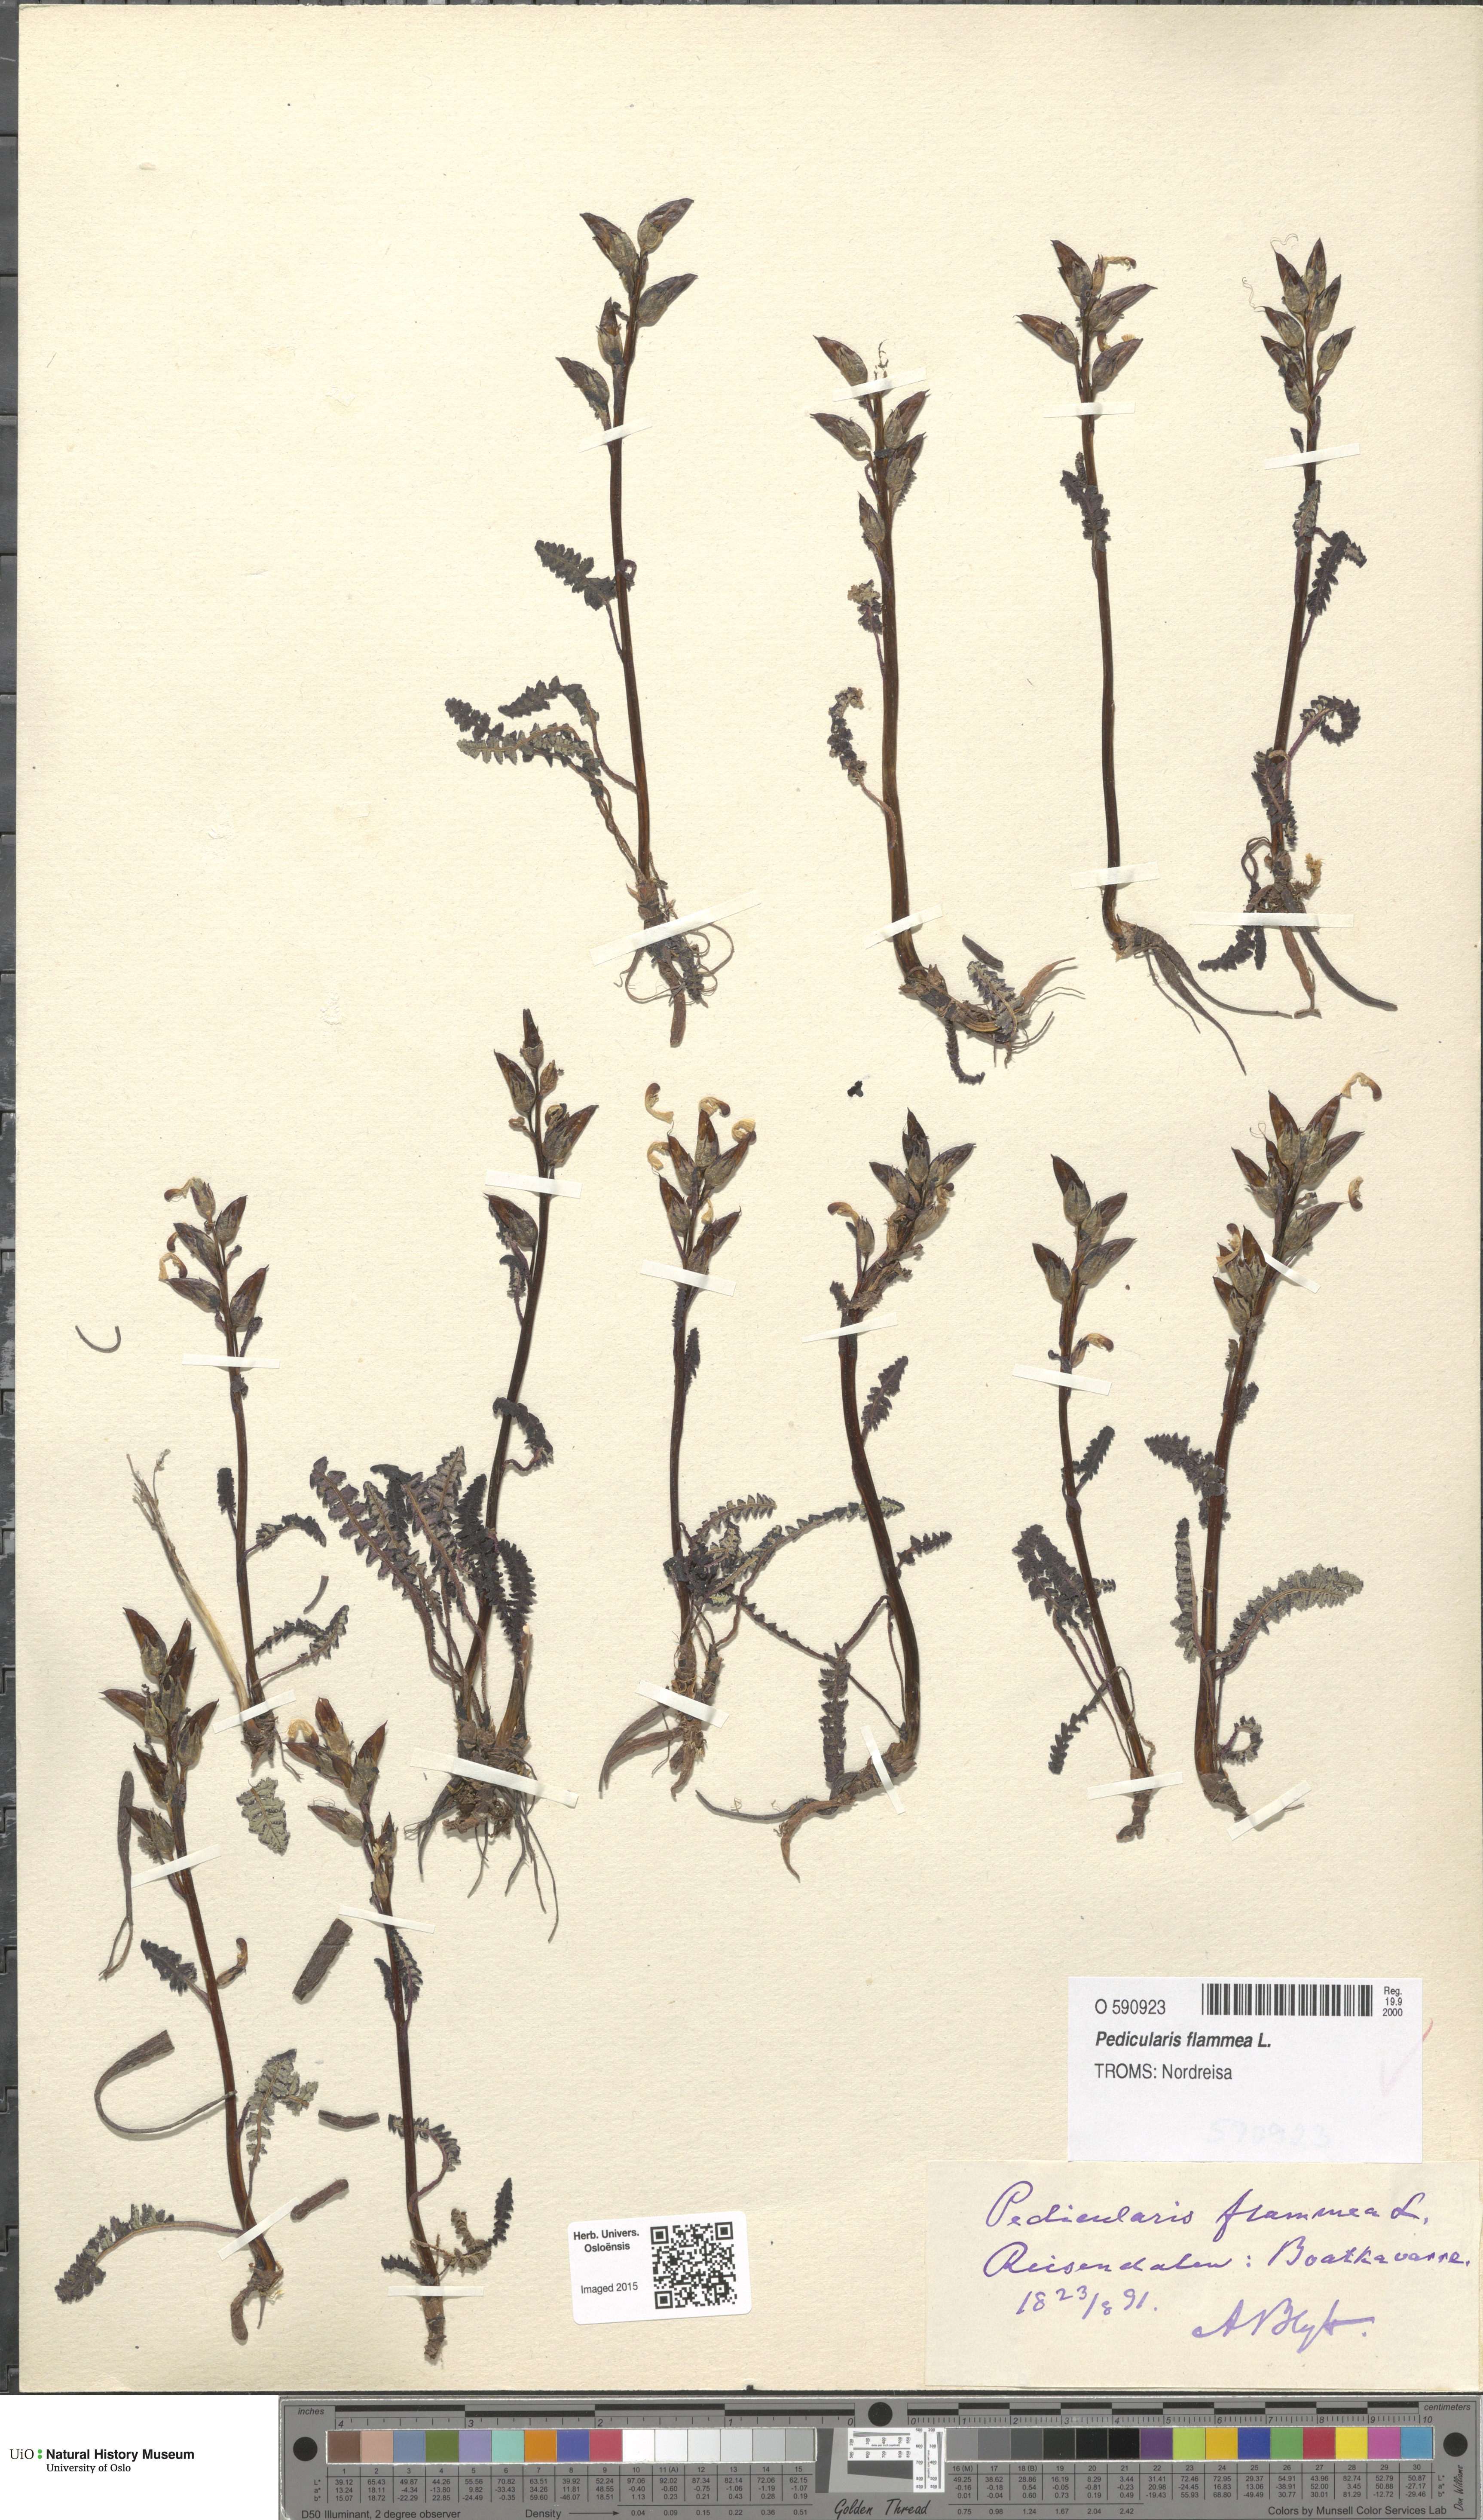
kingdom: Plantae
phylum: Tracheophyta
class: Magnoliopsida
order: Lamiales
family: Orobanchaceae
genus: Pedicularis
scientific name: Pedicularis flammea
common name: Flame-coloured lousewort
